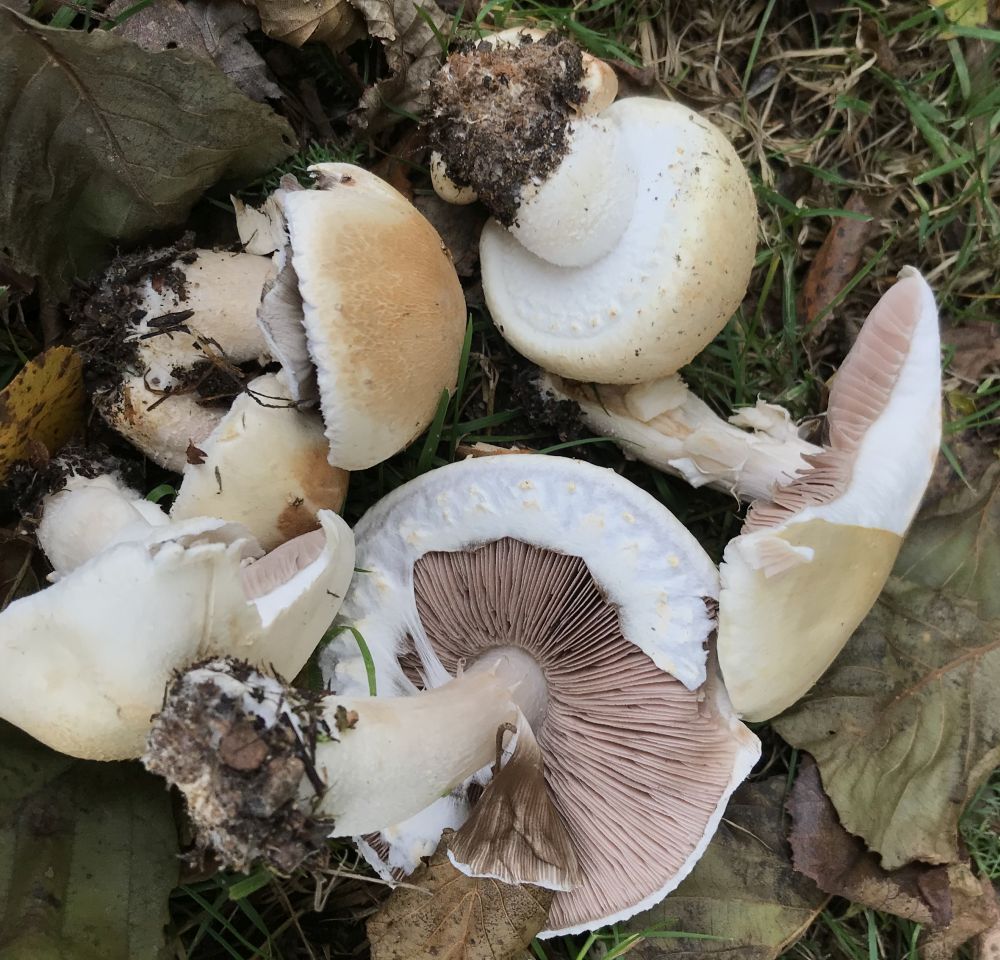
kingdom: Fungi
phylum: Basidiomycota
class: Agaricomycetes
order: Agaricales
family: Agaricaceae
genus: Agaricus
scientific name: Agaricus arvensis
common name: ager-champignon
